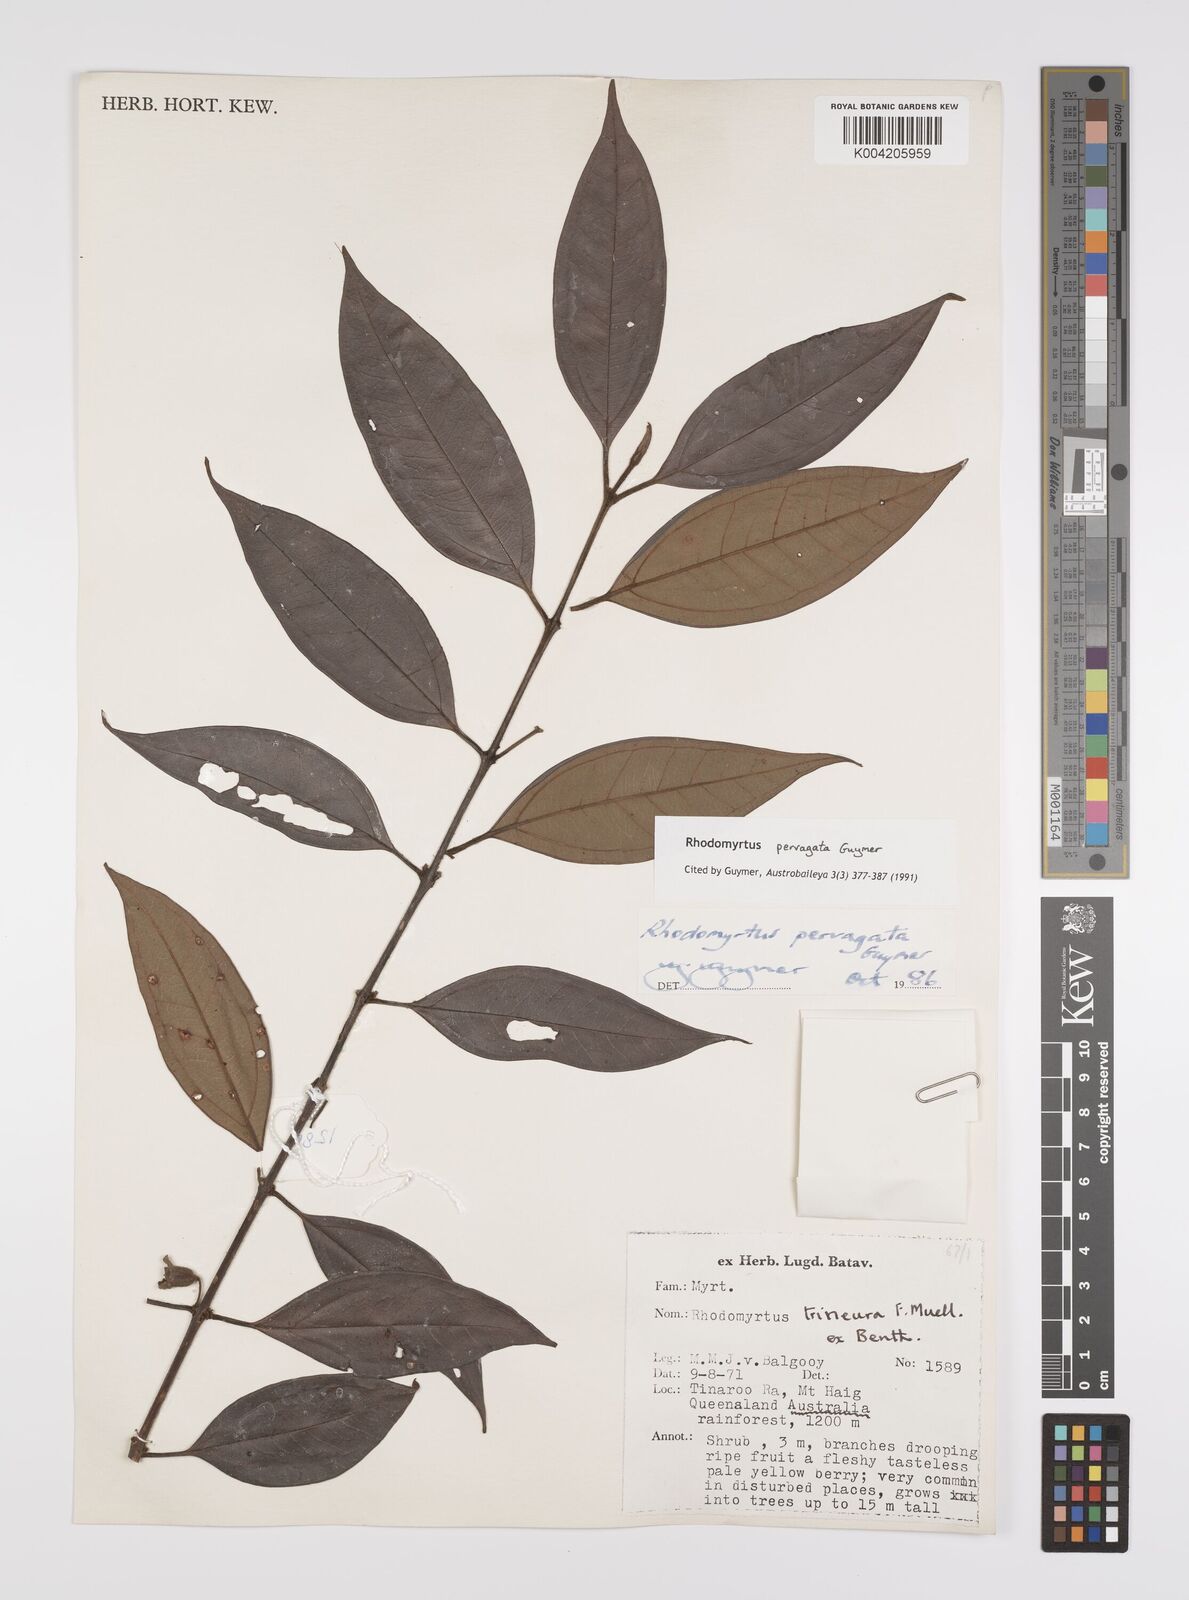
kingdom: Plantae
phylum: Tracheophyta
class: Magnoliopsida
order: Myrtales
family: Myrtaceae
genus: Rhodomyrtus
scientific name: Rhodomyrtus pervagata
